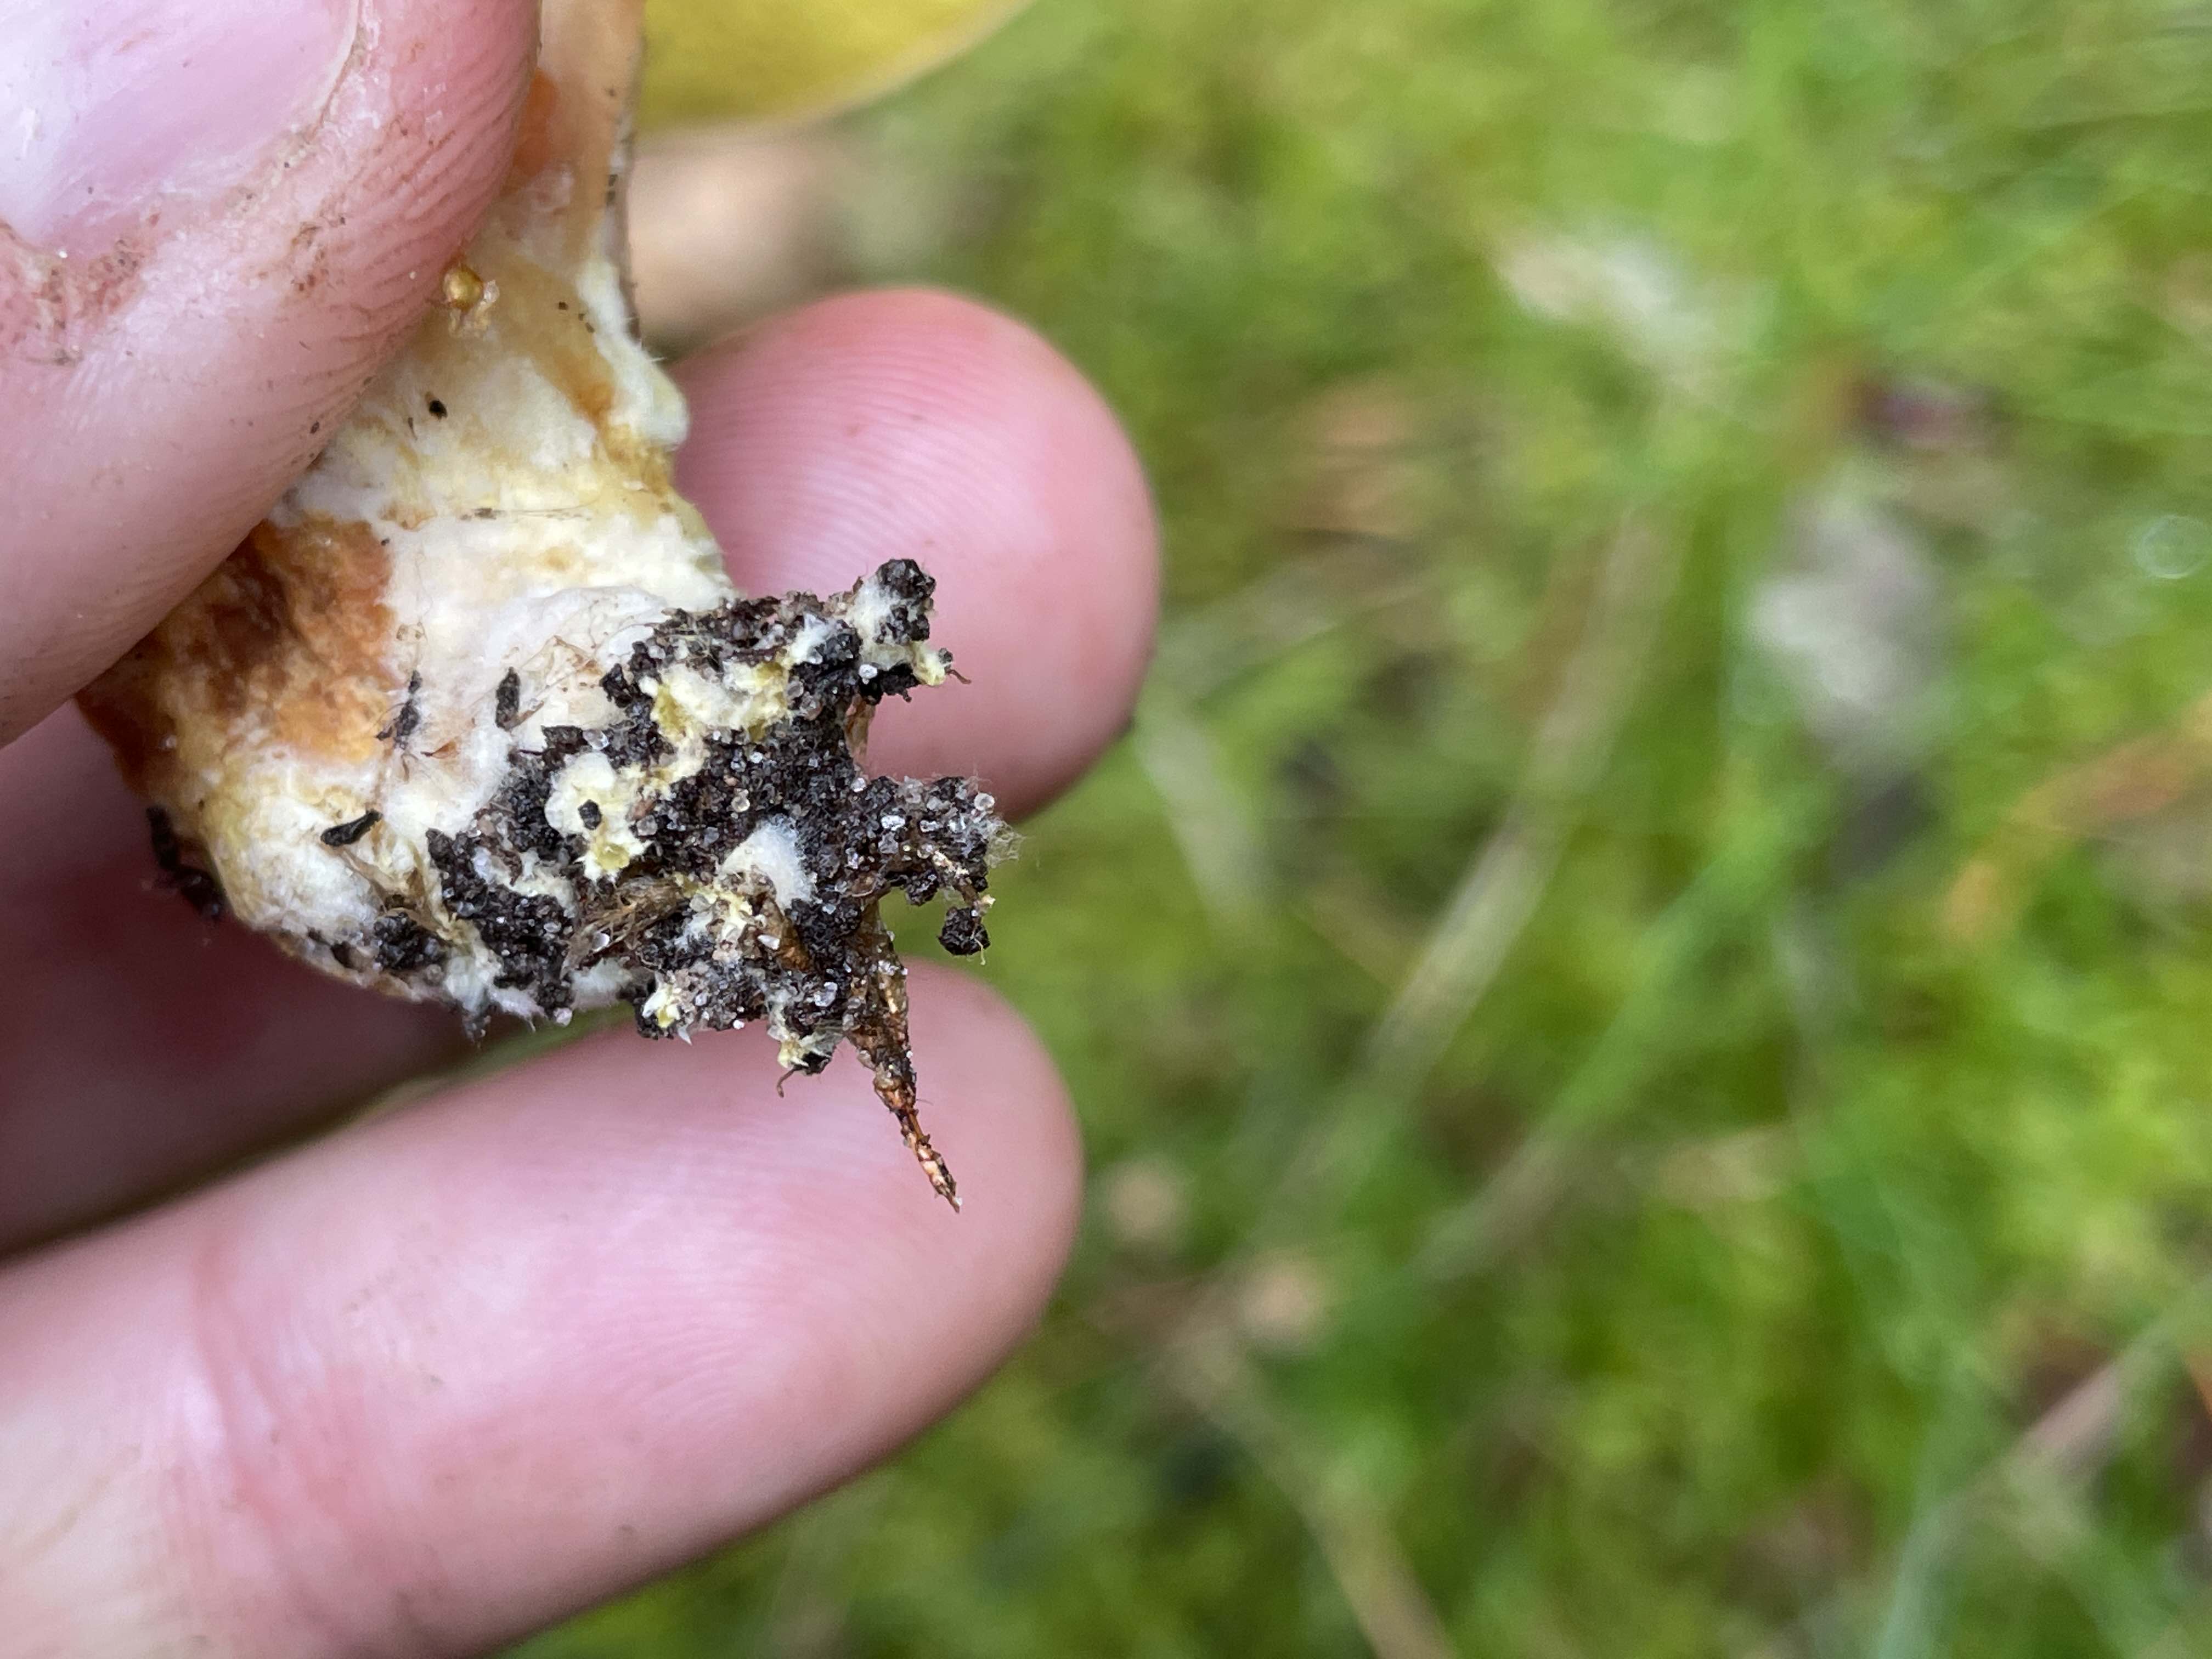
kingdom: Fungi
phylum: Basidiomycota
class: Agaricomycetes
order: Boletales
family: Boletaceae
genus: Xerocomus
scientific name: Xerocomus ferrugineus
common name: vaskeskinds-rørhat
